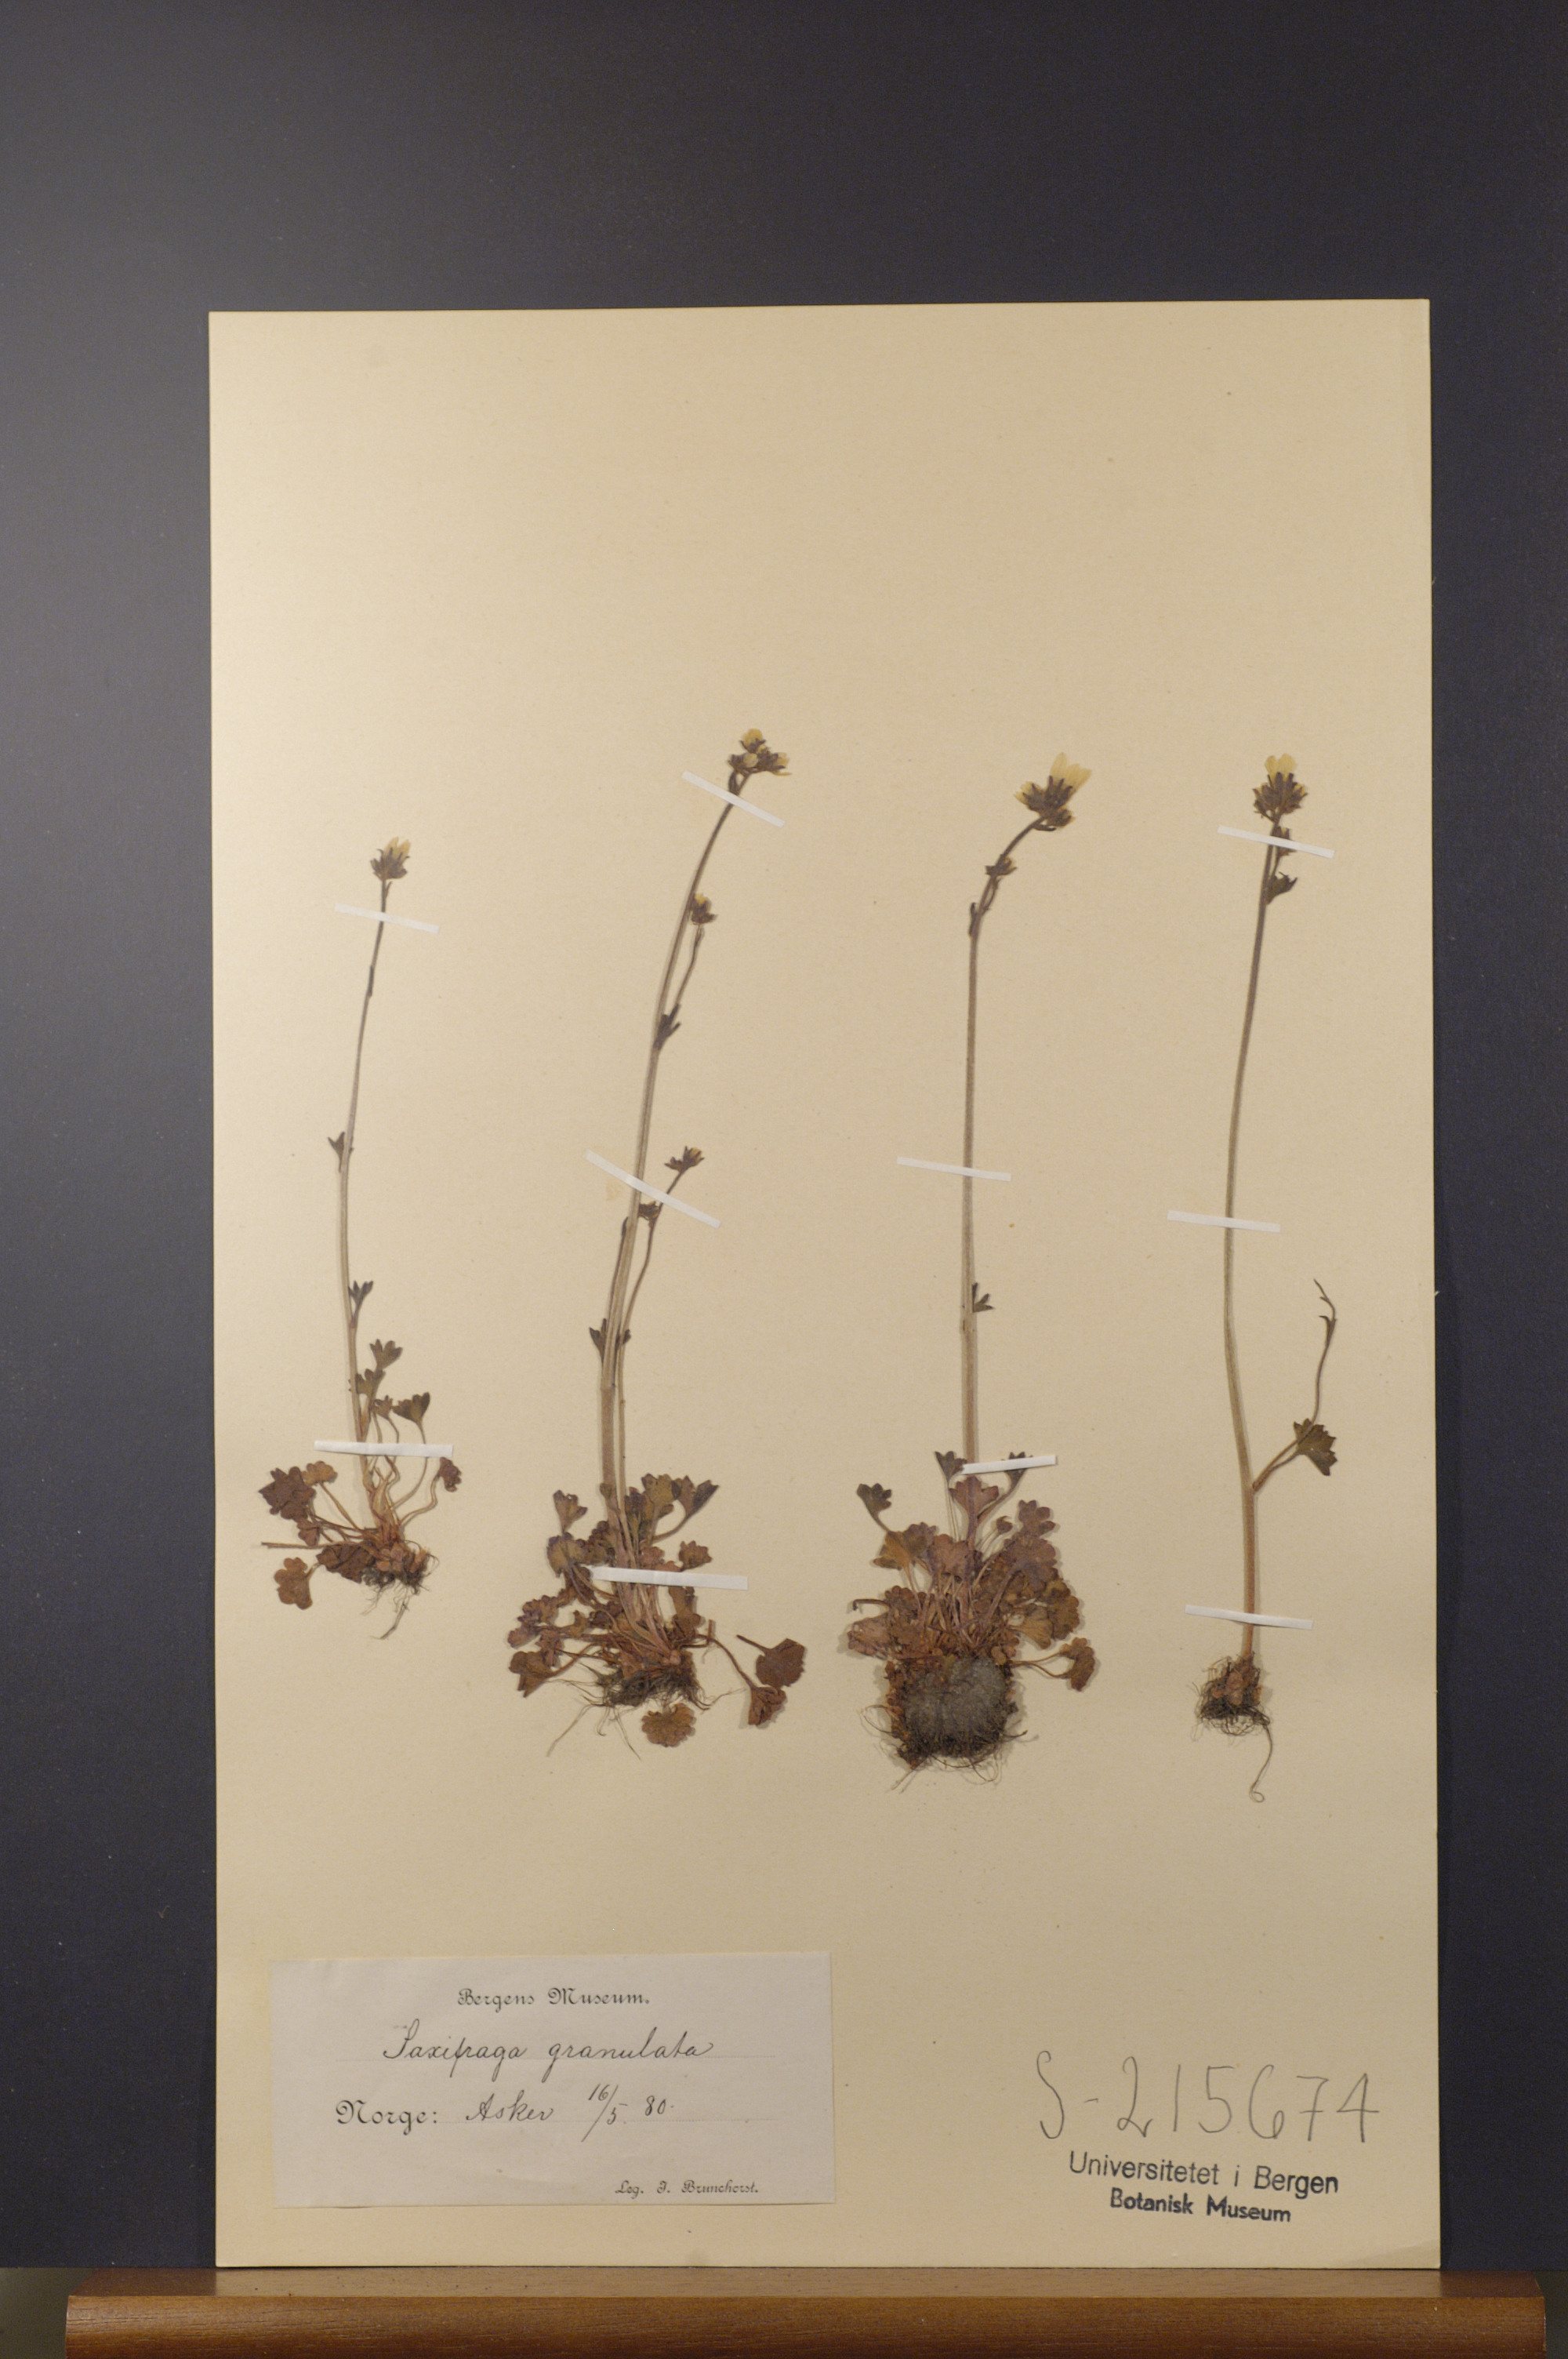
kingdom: Plantae
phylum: Tracheophyta
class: Magnoliopsida
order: Saxifragales
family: Saxifragaceae
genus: Saxifraga
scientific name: Saxifraga granulata
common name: Meadow saxifrage
